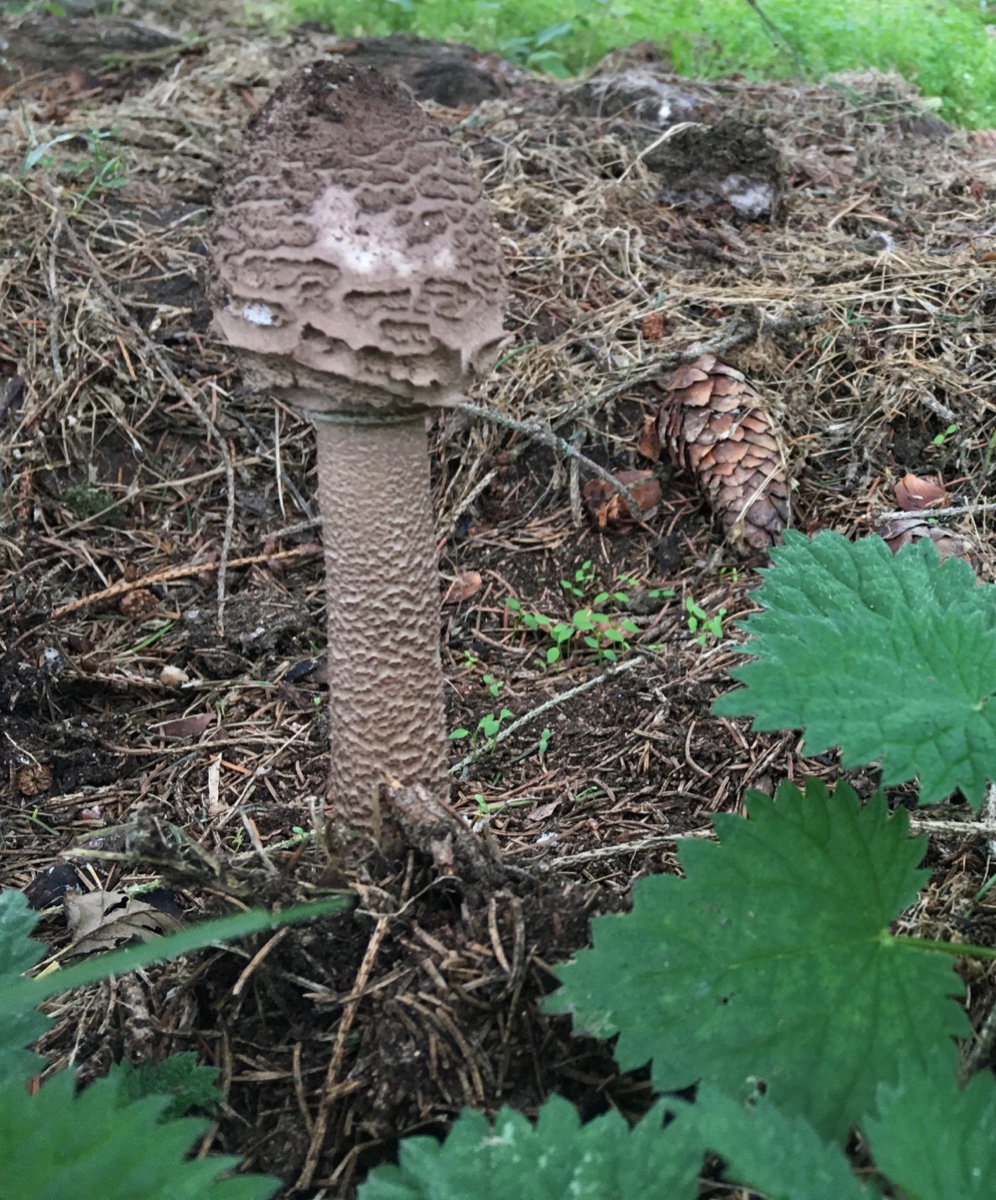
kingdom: Fungi
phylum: Basidiomycota
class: Agaricomycetes
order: Agaricales
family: Agaricaceae
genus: Macrolepiota
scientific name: Macrolepiota procera
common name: stor kæmpeparasolhat
